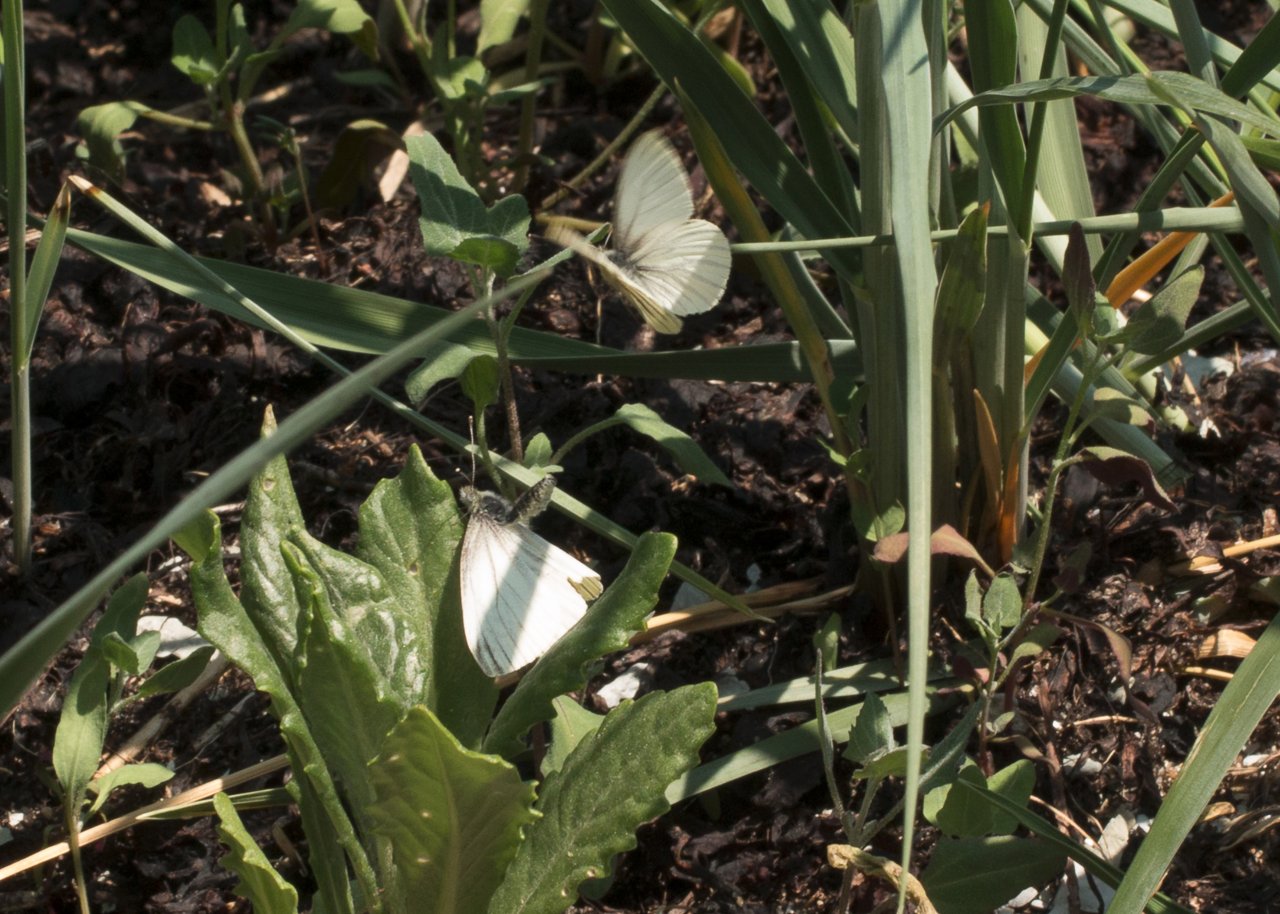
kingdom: Animalia
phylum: Arthropoda
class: Insecta
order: Lepidoptera
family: Pieridae
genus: Pieris
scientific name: Pieris oleracea
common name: Mustard White
